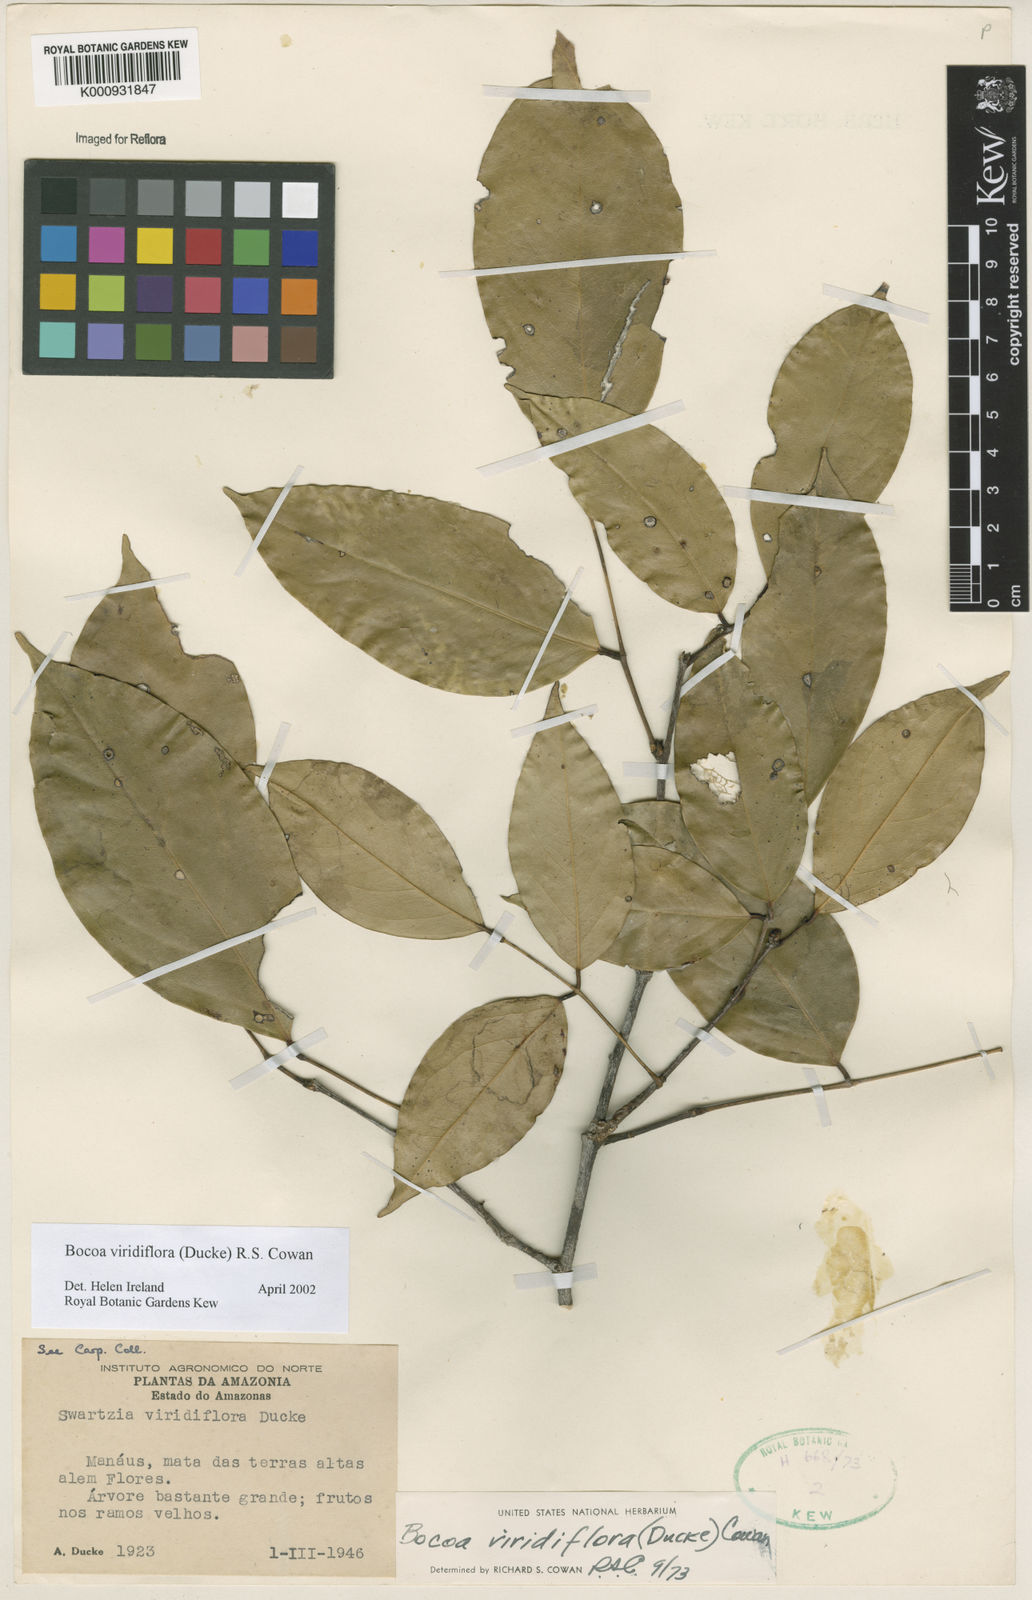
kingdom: Plantae
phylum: Tracheophyta
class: Magnoliopsida
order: Fabales
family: Fabaceae
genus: Bocoa
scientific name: Bocoa viridiflora
